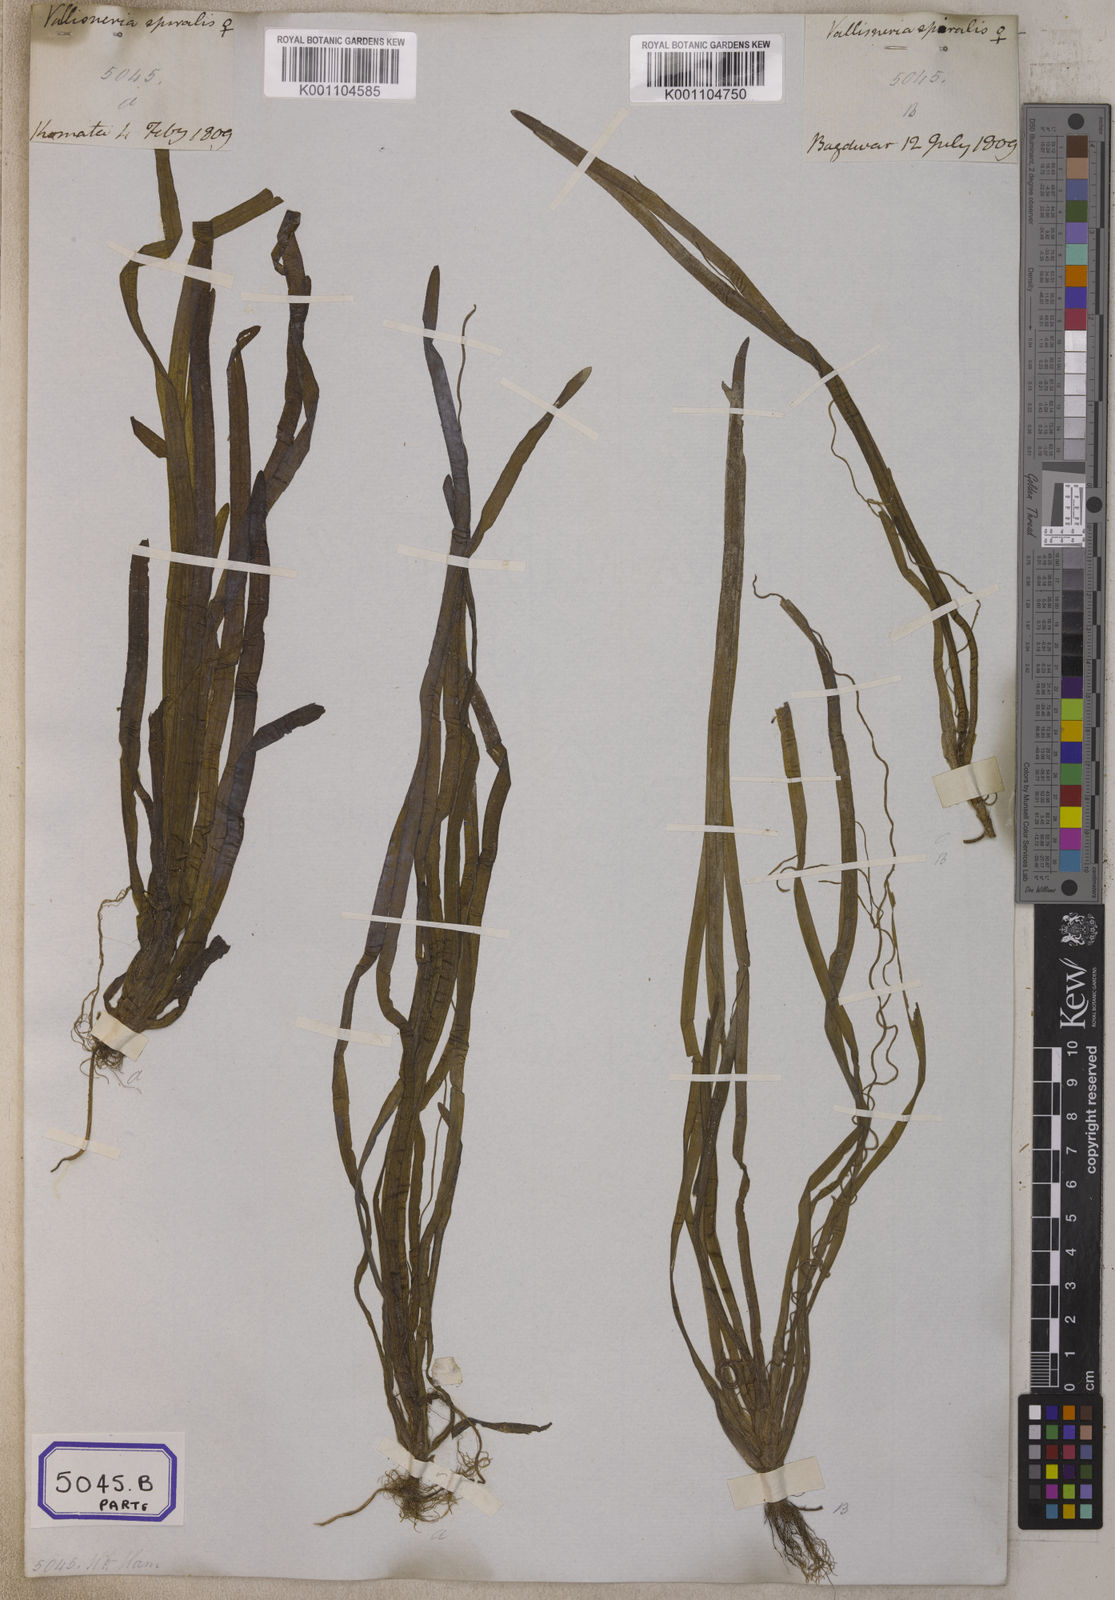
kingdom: Plantae
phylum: Tracheophyta
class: Liliopsida
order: Alismatales
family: Hydrocharitaceae
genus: Vallisneria
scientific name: Vallisneria spiralis
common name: Tapegrass
